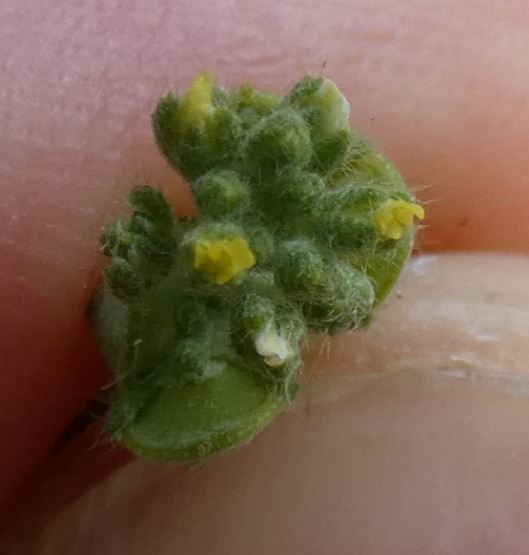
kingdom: Plantae
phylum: Tracheophyta
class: Magnoliopsida
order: Brassicales
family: Brassicaceae
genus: Alyssum
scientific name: Alyssum alyssoides
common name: Grådodder
